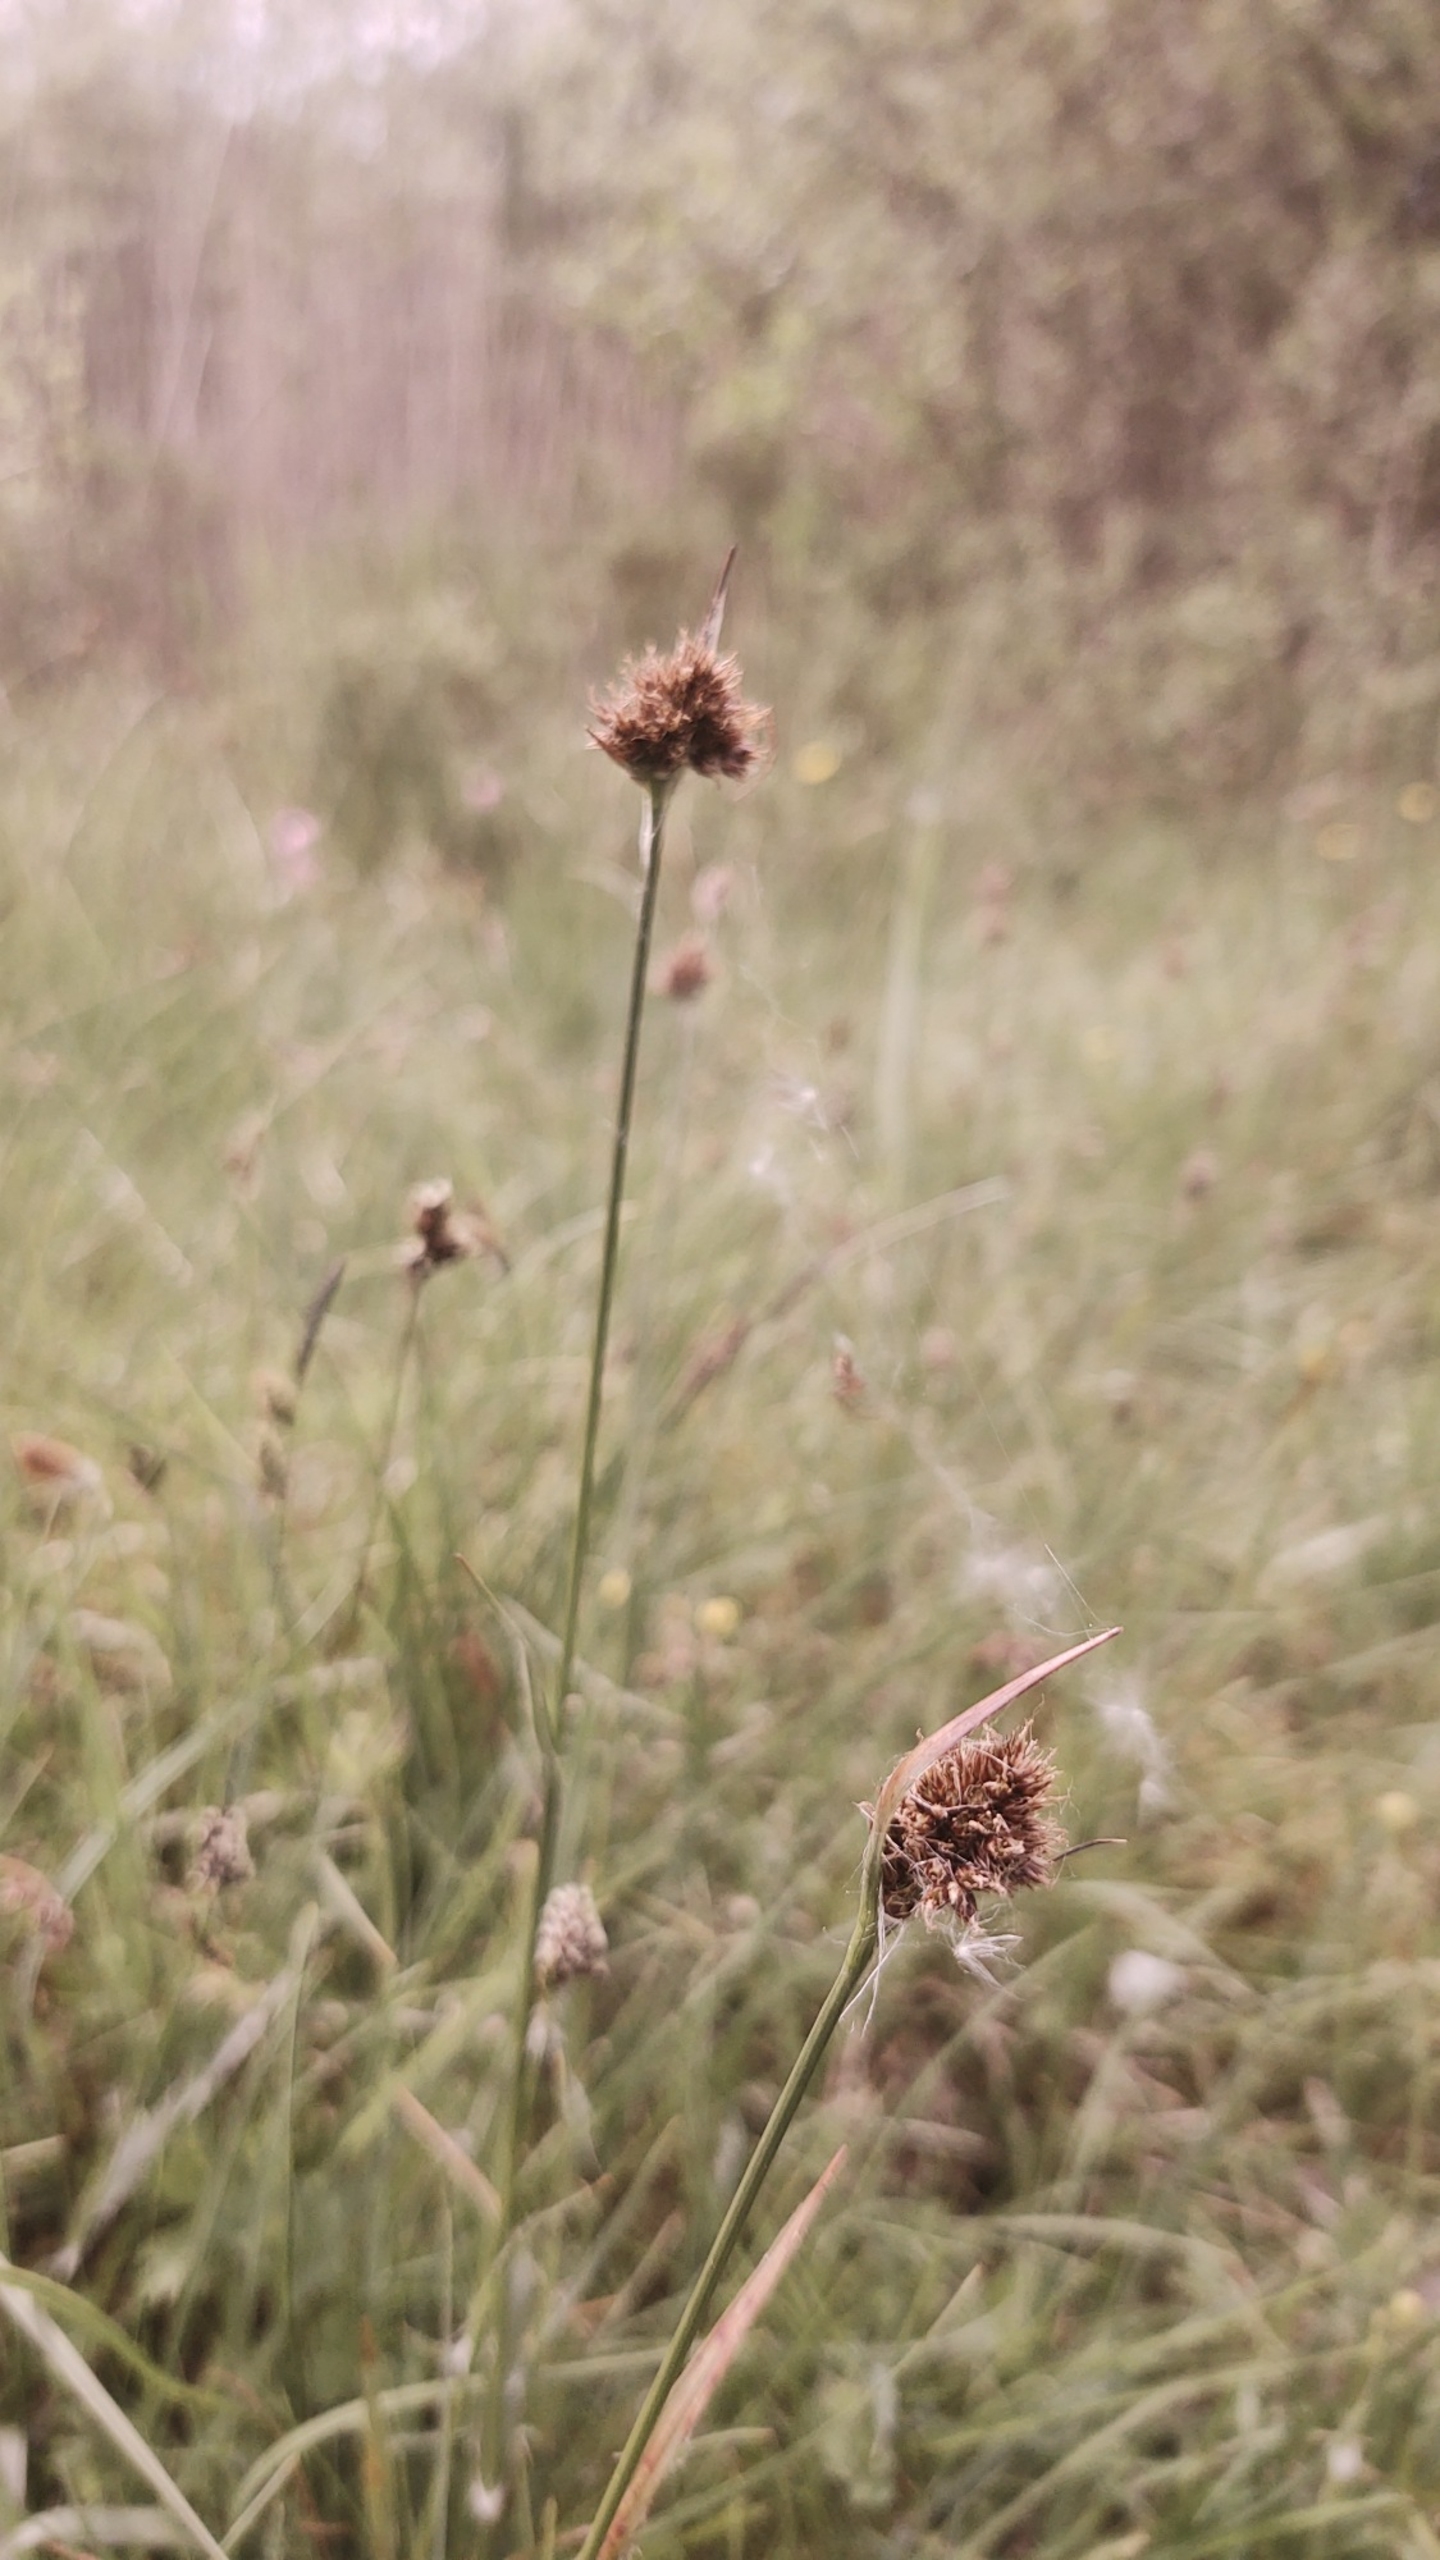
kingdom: Plantae
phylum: Tracheophyta
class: Liliopsida
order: Poales
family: Juncaceae
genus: Luzula
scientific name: Luzula congesta
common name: Hoved-frytle
